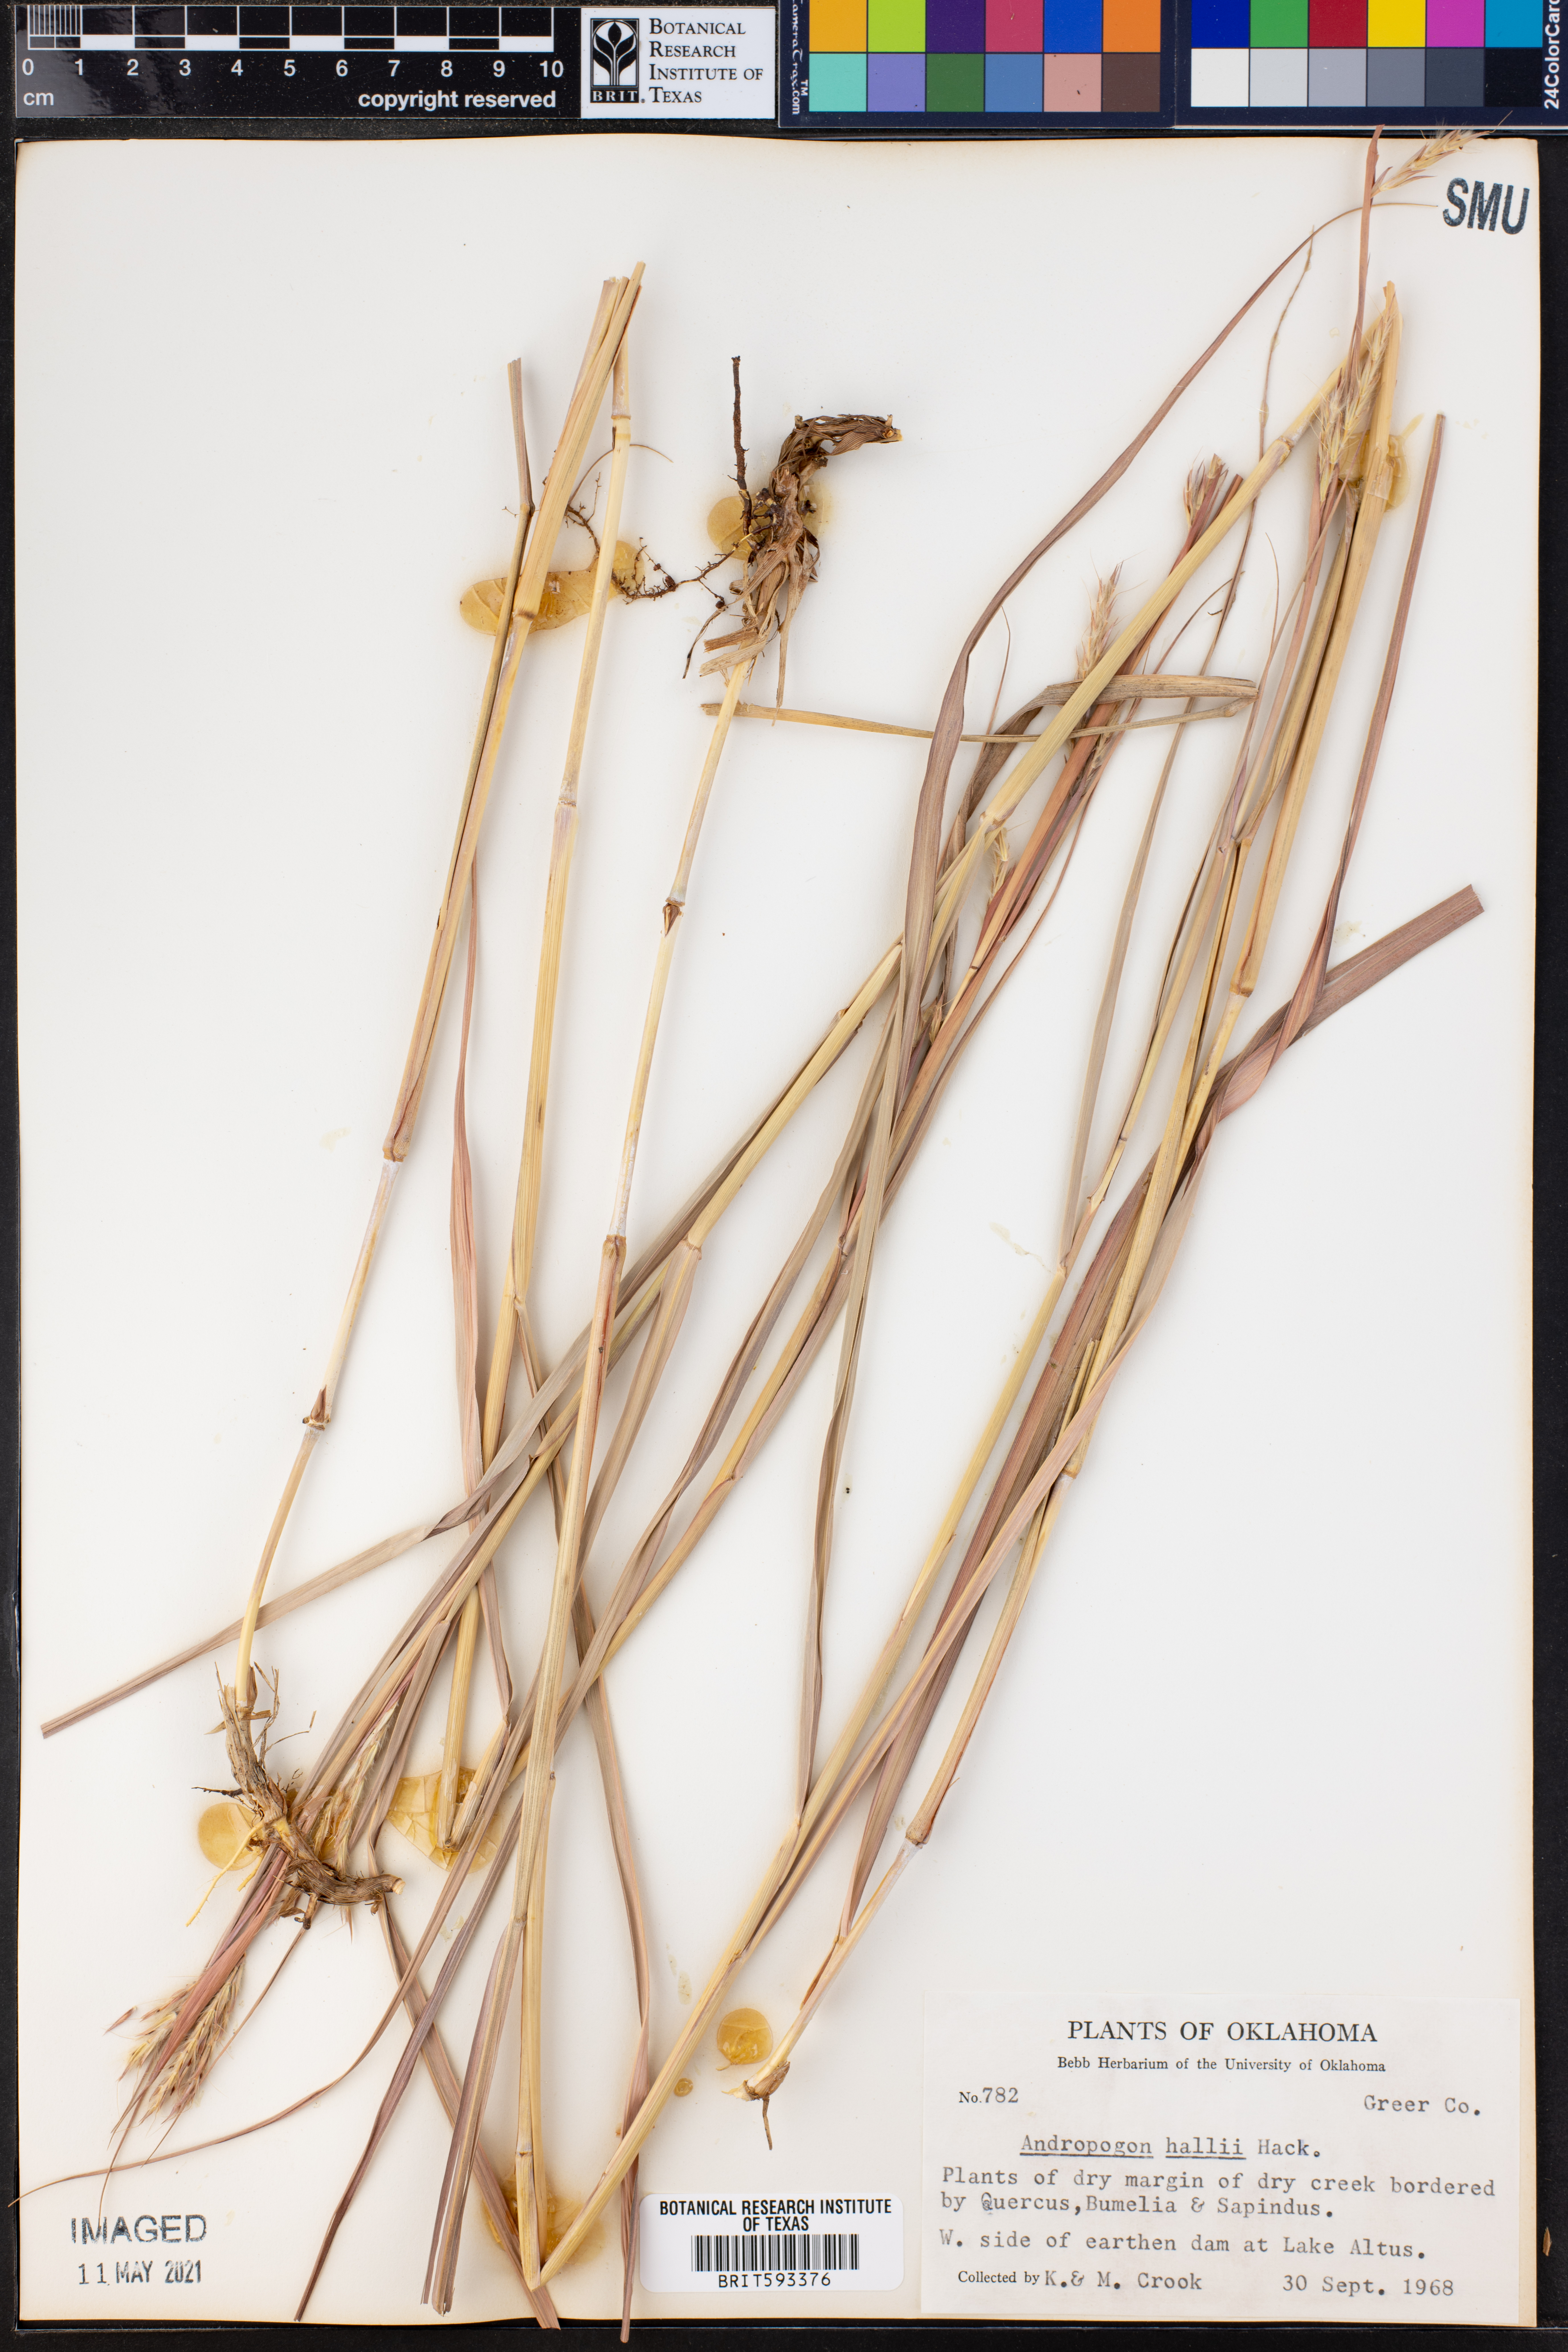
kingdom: Plantae
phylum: Tracheophyta
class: Liliopsida
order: Poales
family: Poaceae
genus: Andropogon
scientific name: Andropogon hallii
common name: Sand bluestem
